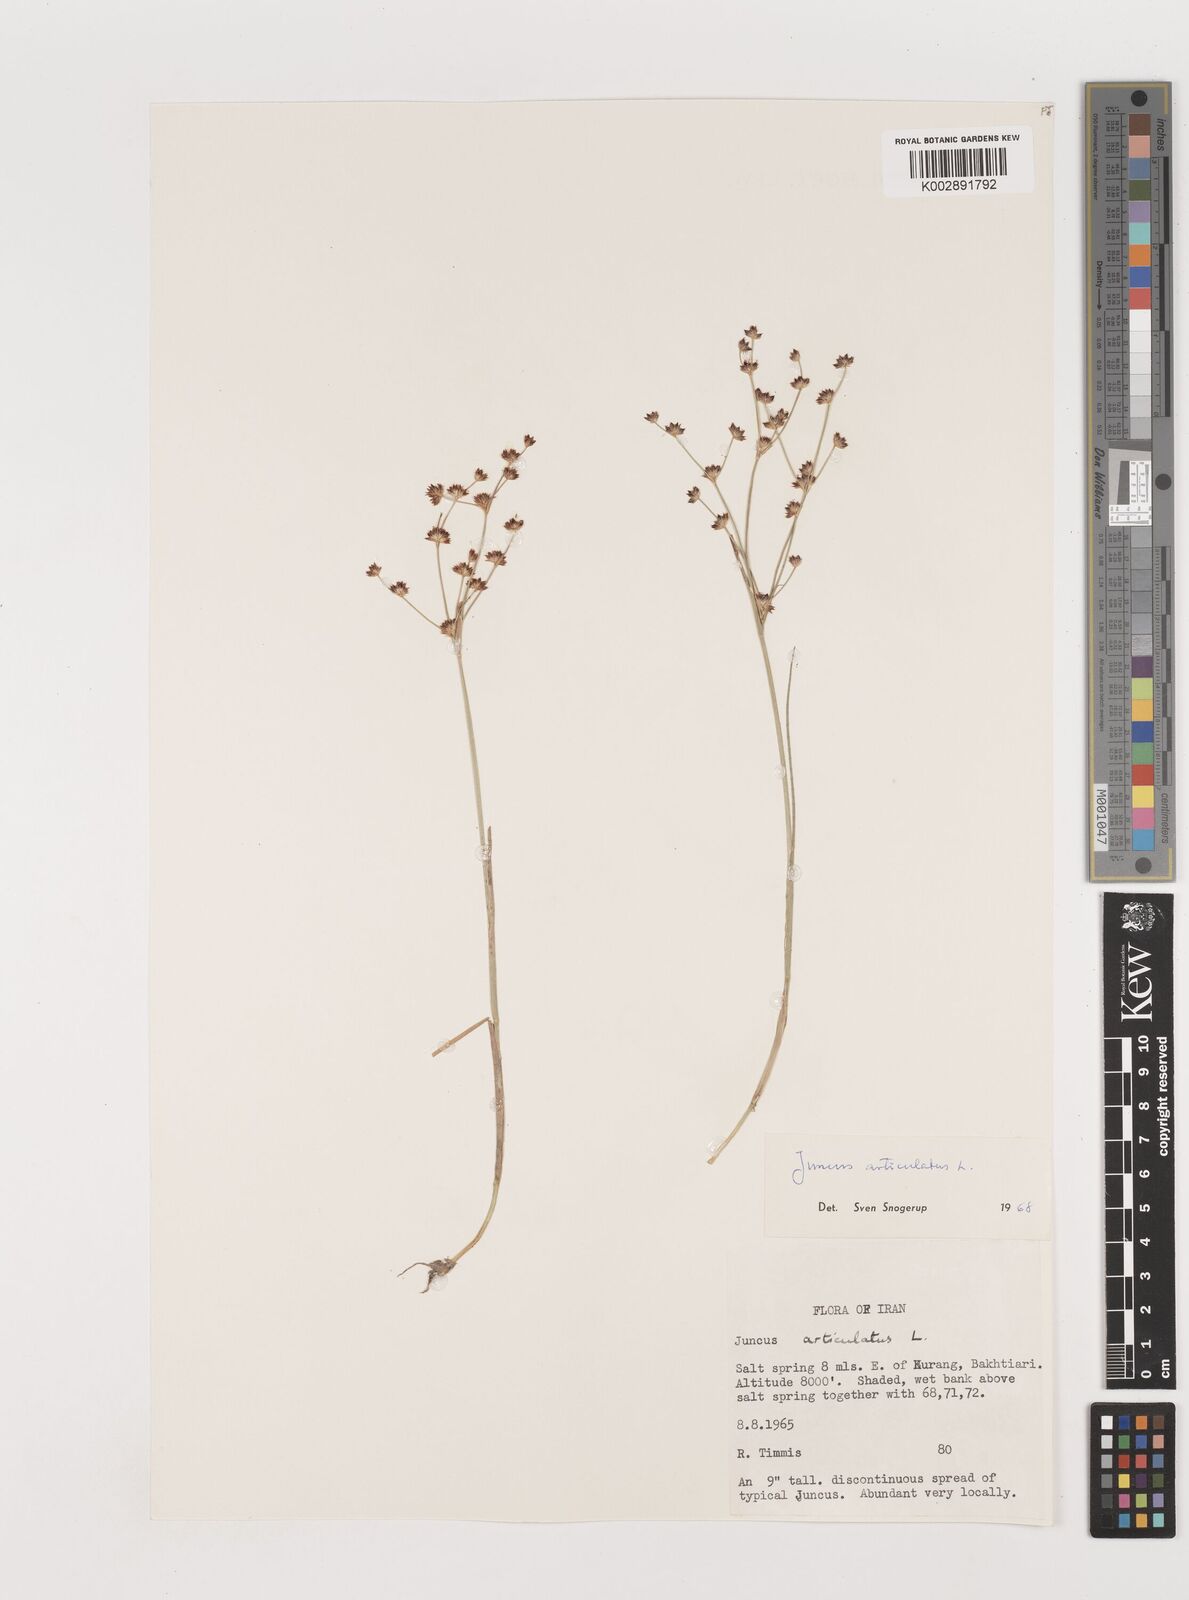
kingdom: Plantae
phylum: Tracheophyta
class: Liliopsida
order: Poales
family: Juncaceae
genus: Juncus
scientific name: Juncus articulatus
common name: Jointed rush
